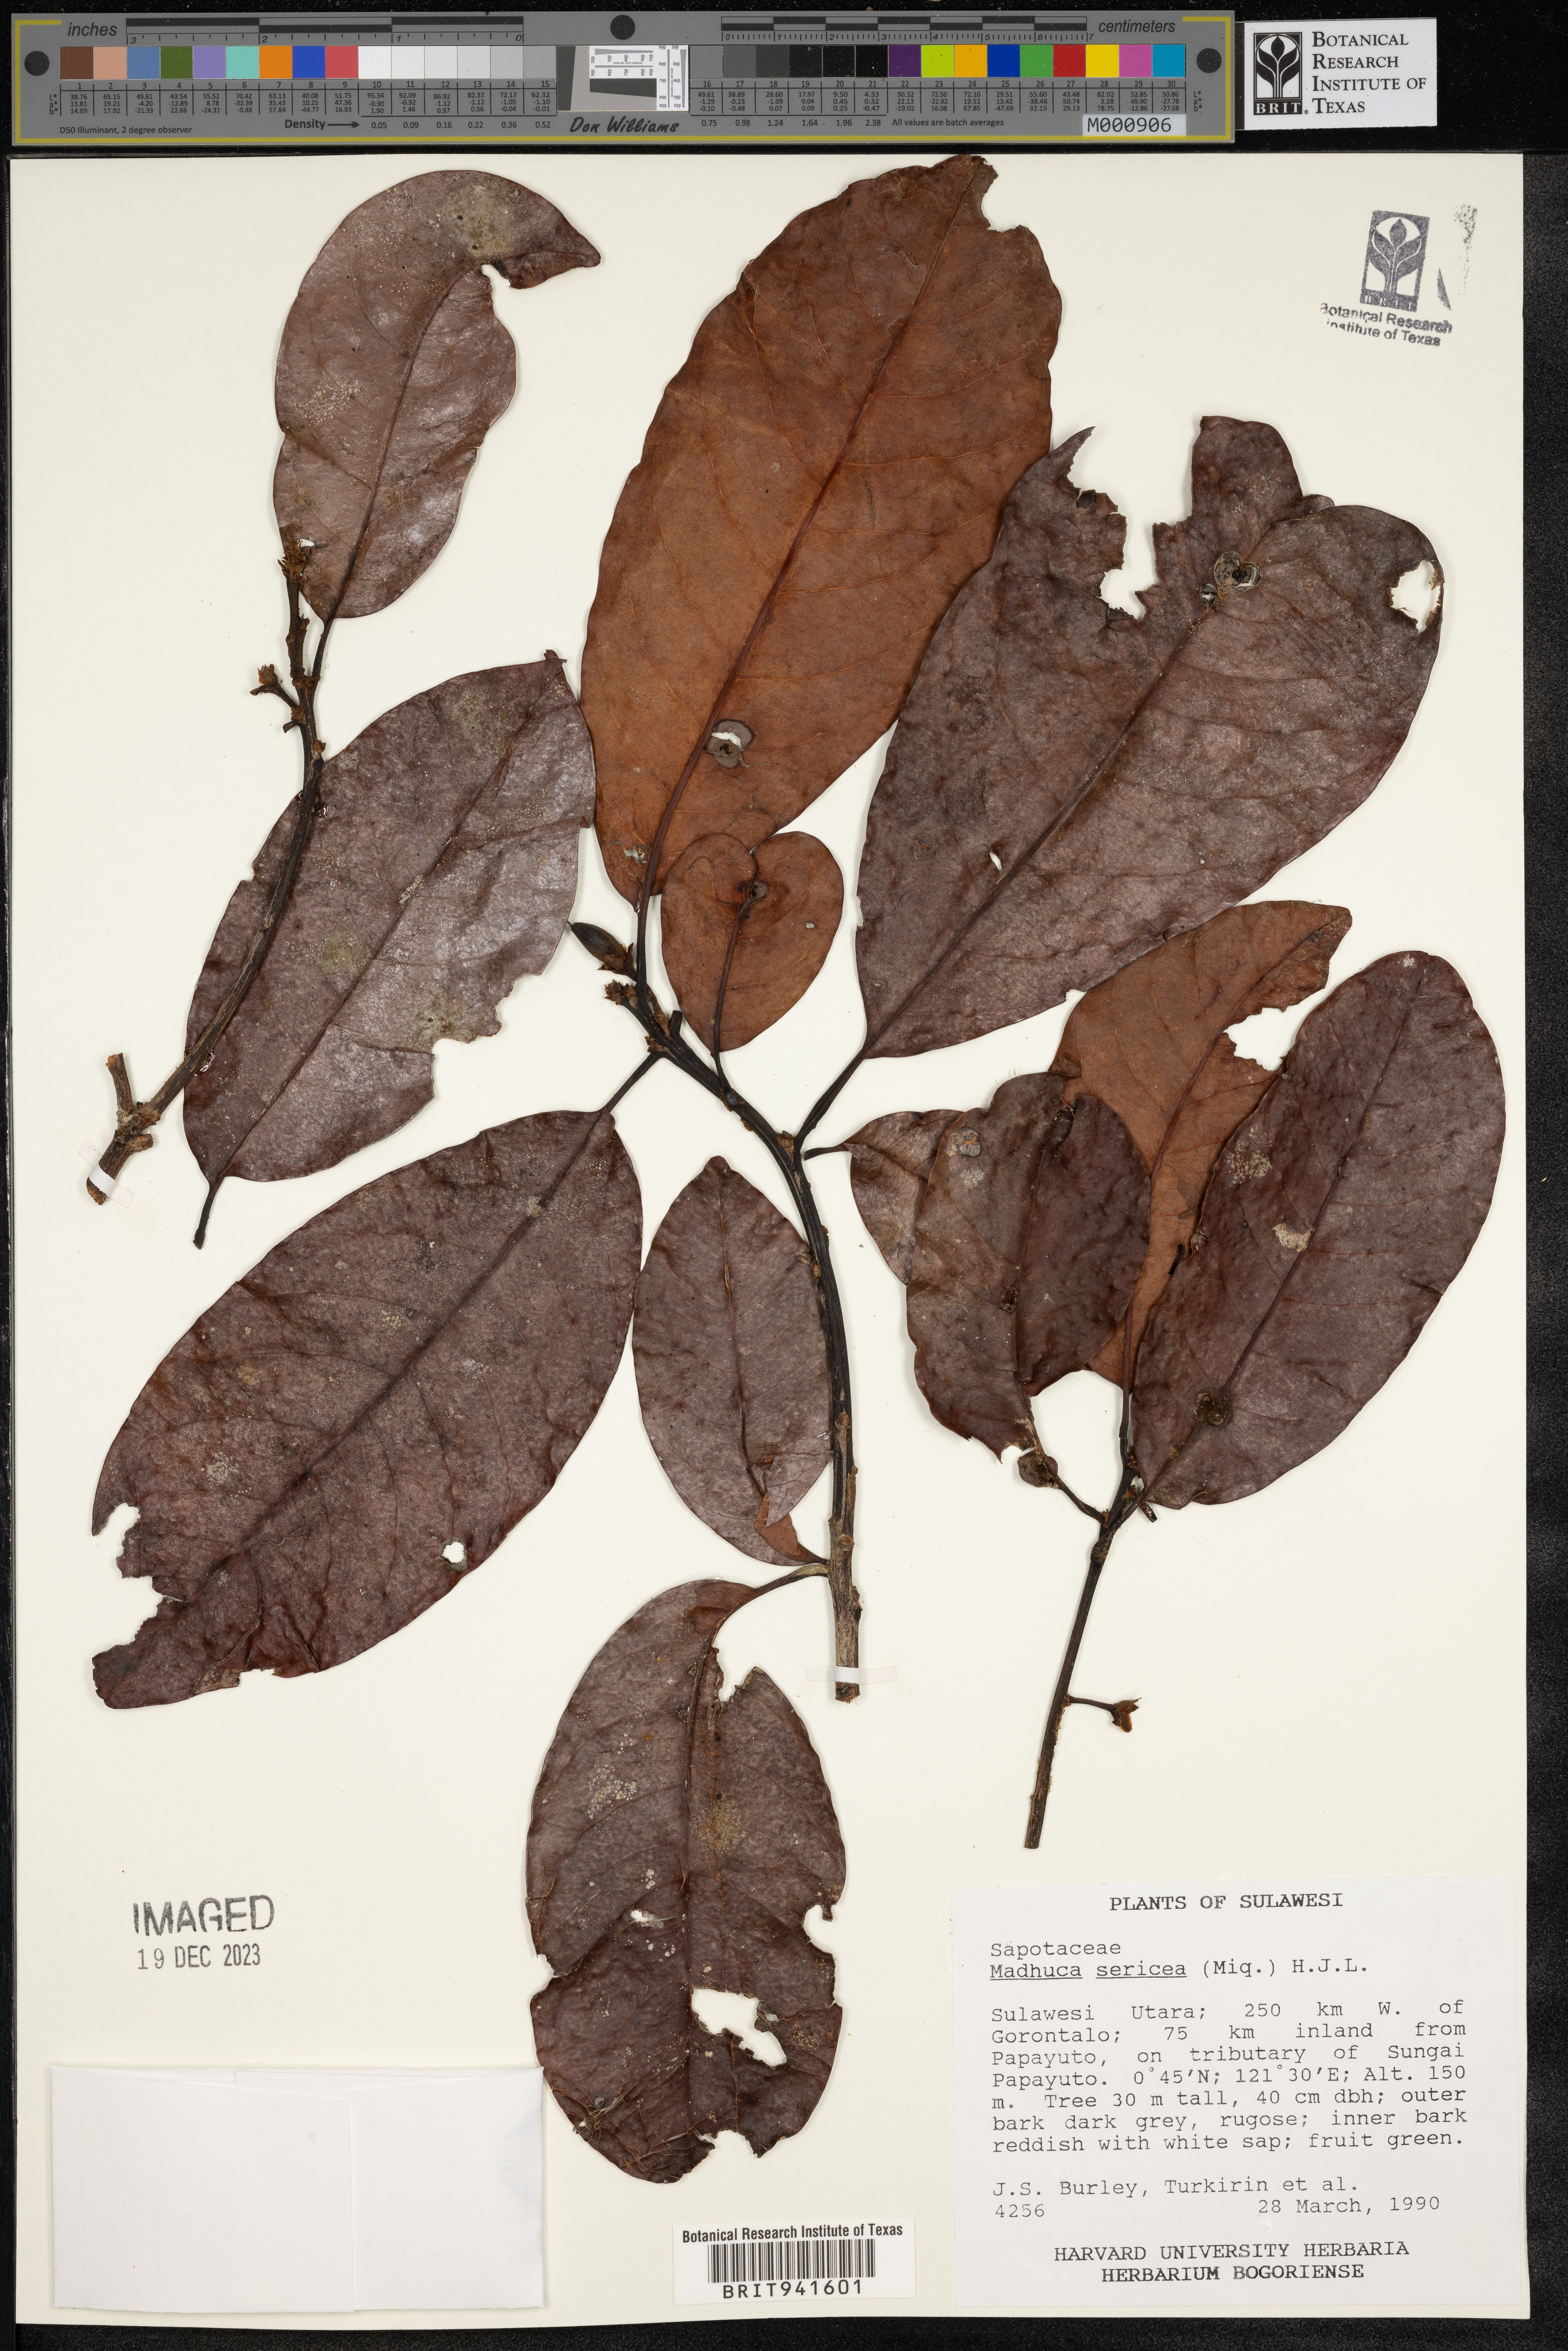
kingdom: Plantae
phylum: Tracheophyta
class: Magnoliopsida
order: Ericales
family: Sapotaceae
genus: Madhuca
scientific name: Madhuca
